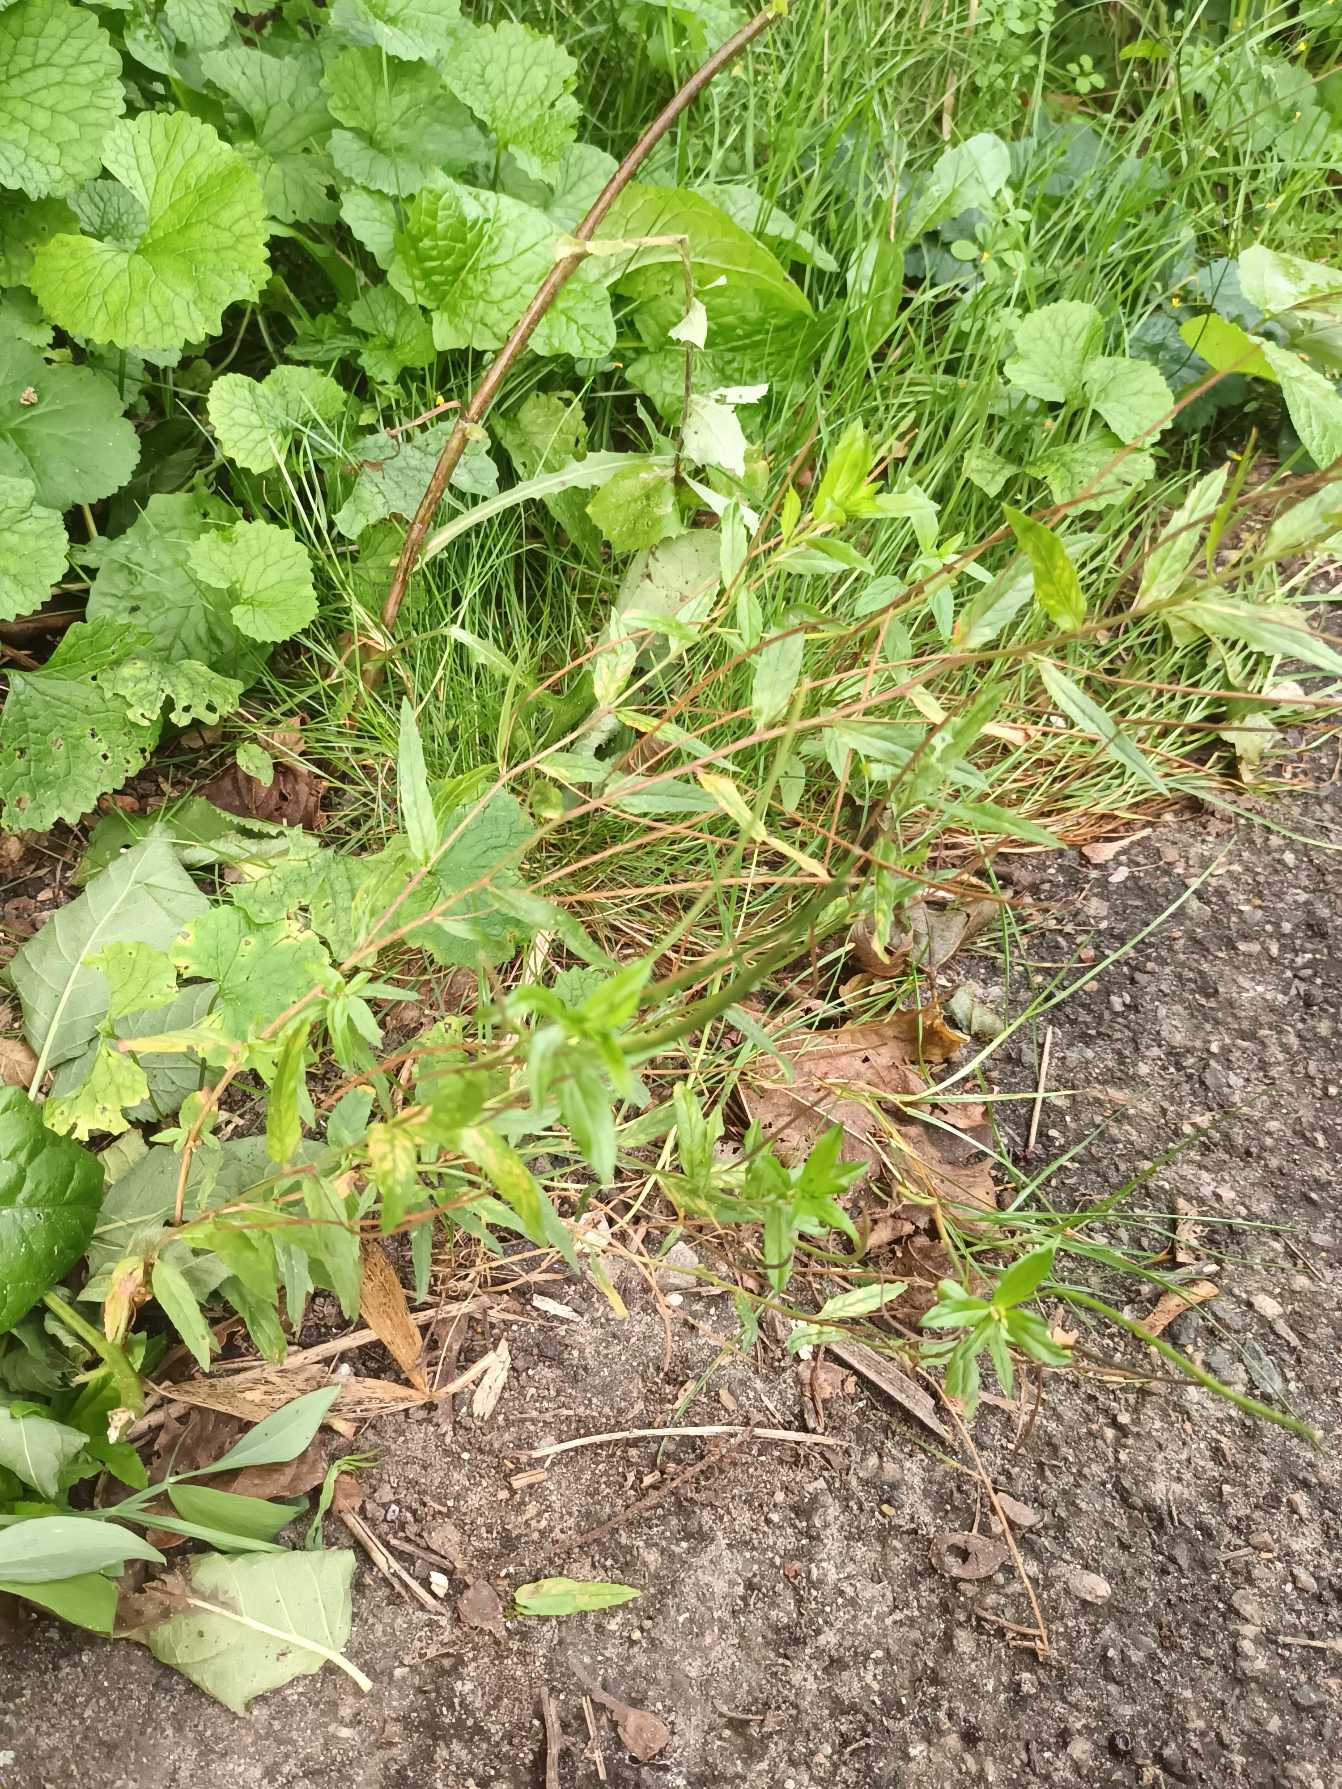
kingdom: Plantae
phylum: Tracheophyta
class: Magnoliopsida
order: Myrtales
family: Onagraceae
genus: Epilobium
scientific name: Epilobium tetragonum
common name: Kantet dueurt
